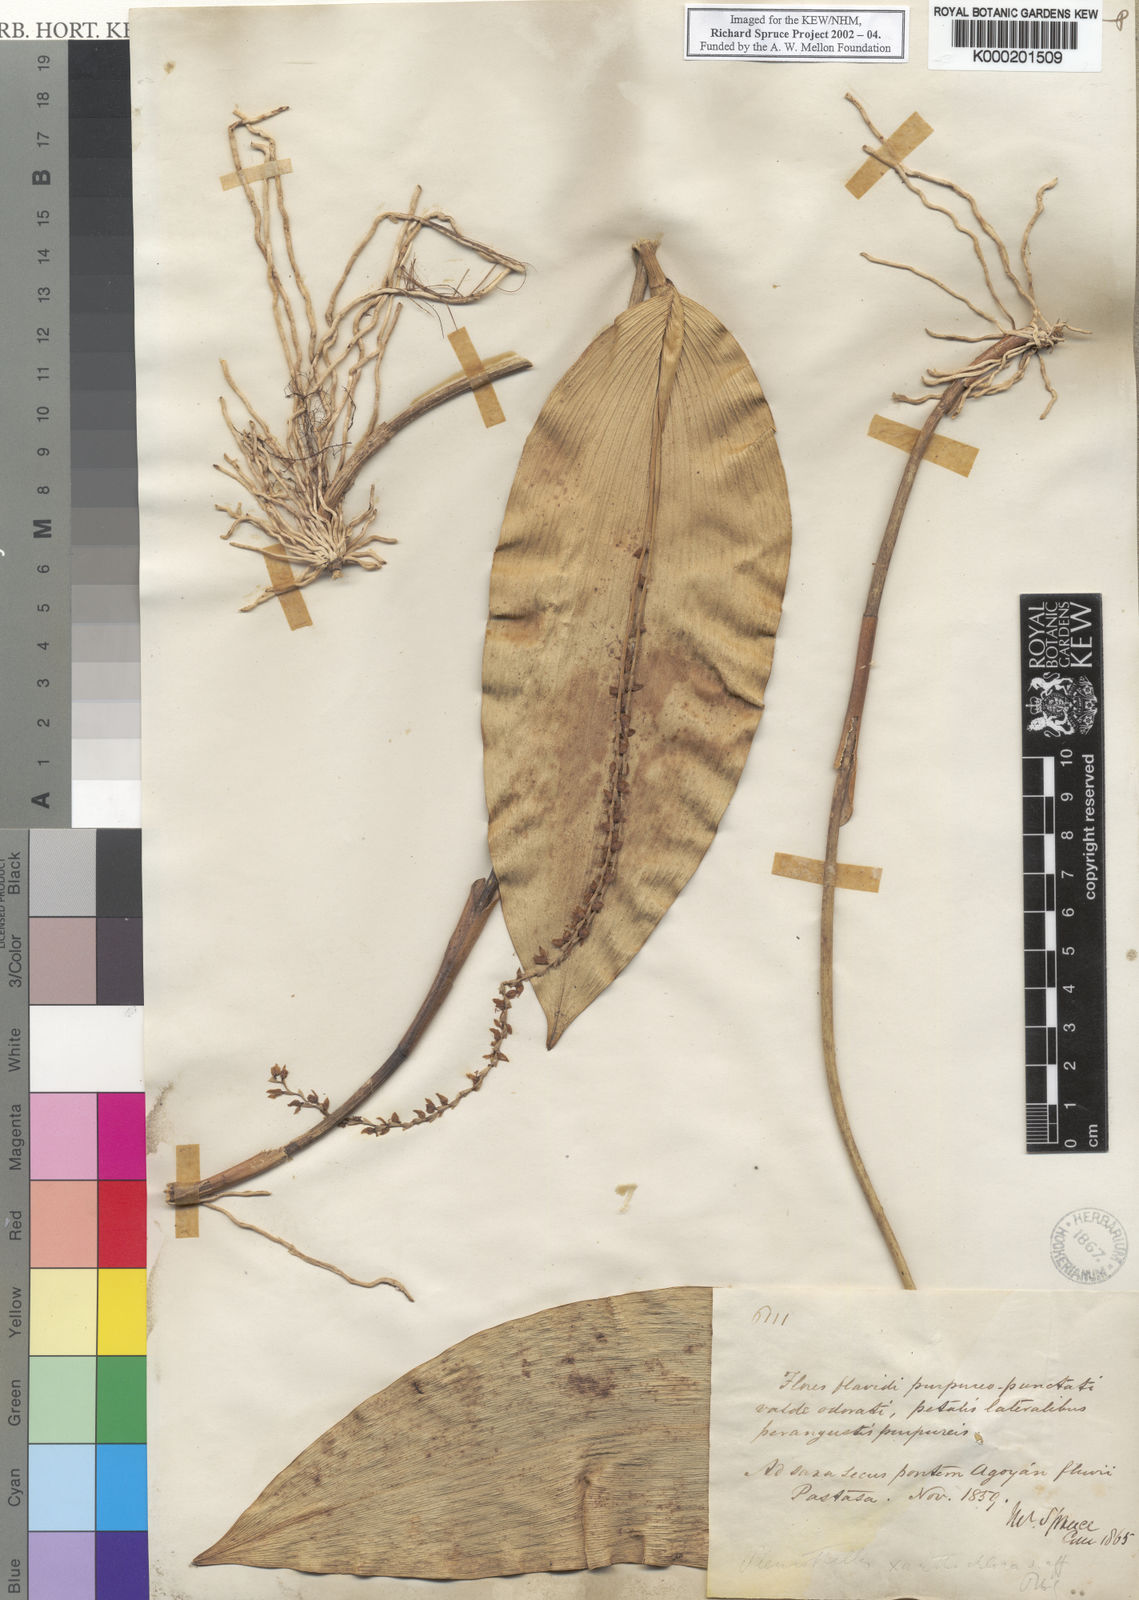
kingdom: Plantae
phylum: Tracheophyta
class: Liliopsida
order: Asparagales
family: Orchidaceae
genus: Pleurothallis
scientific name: Pleurothallis xanthochlora
